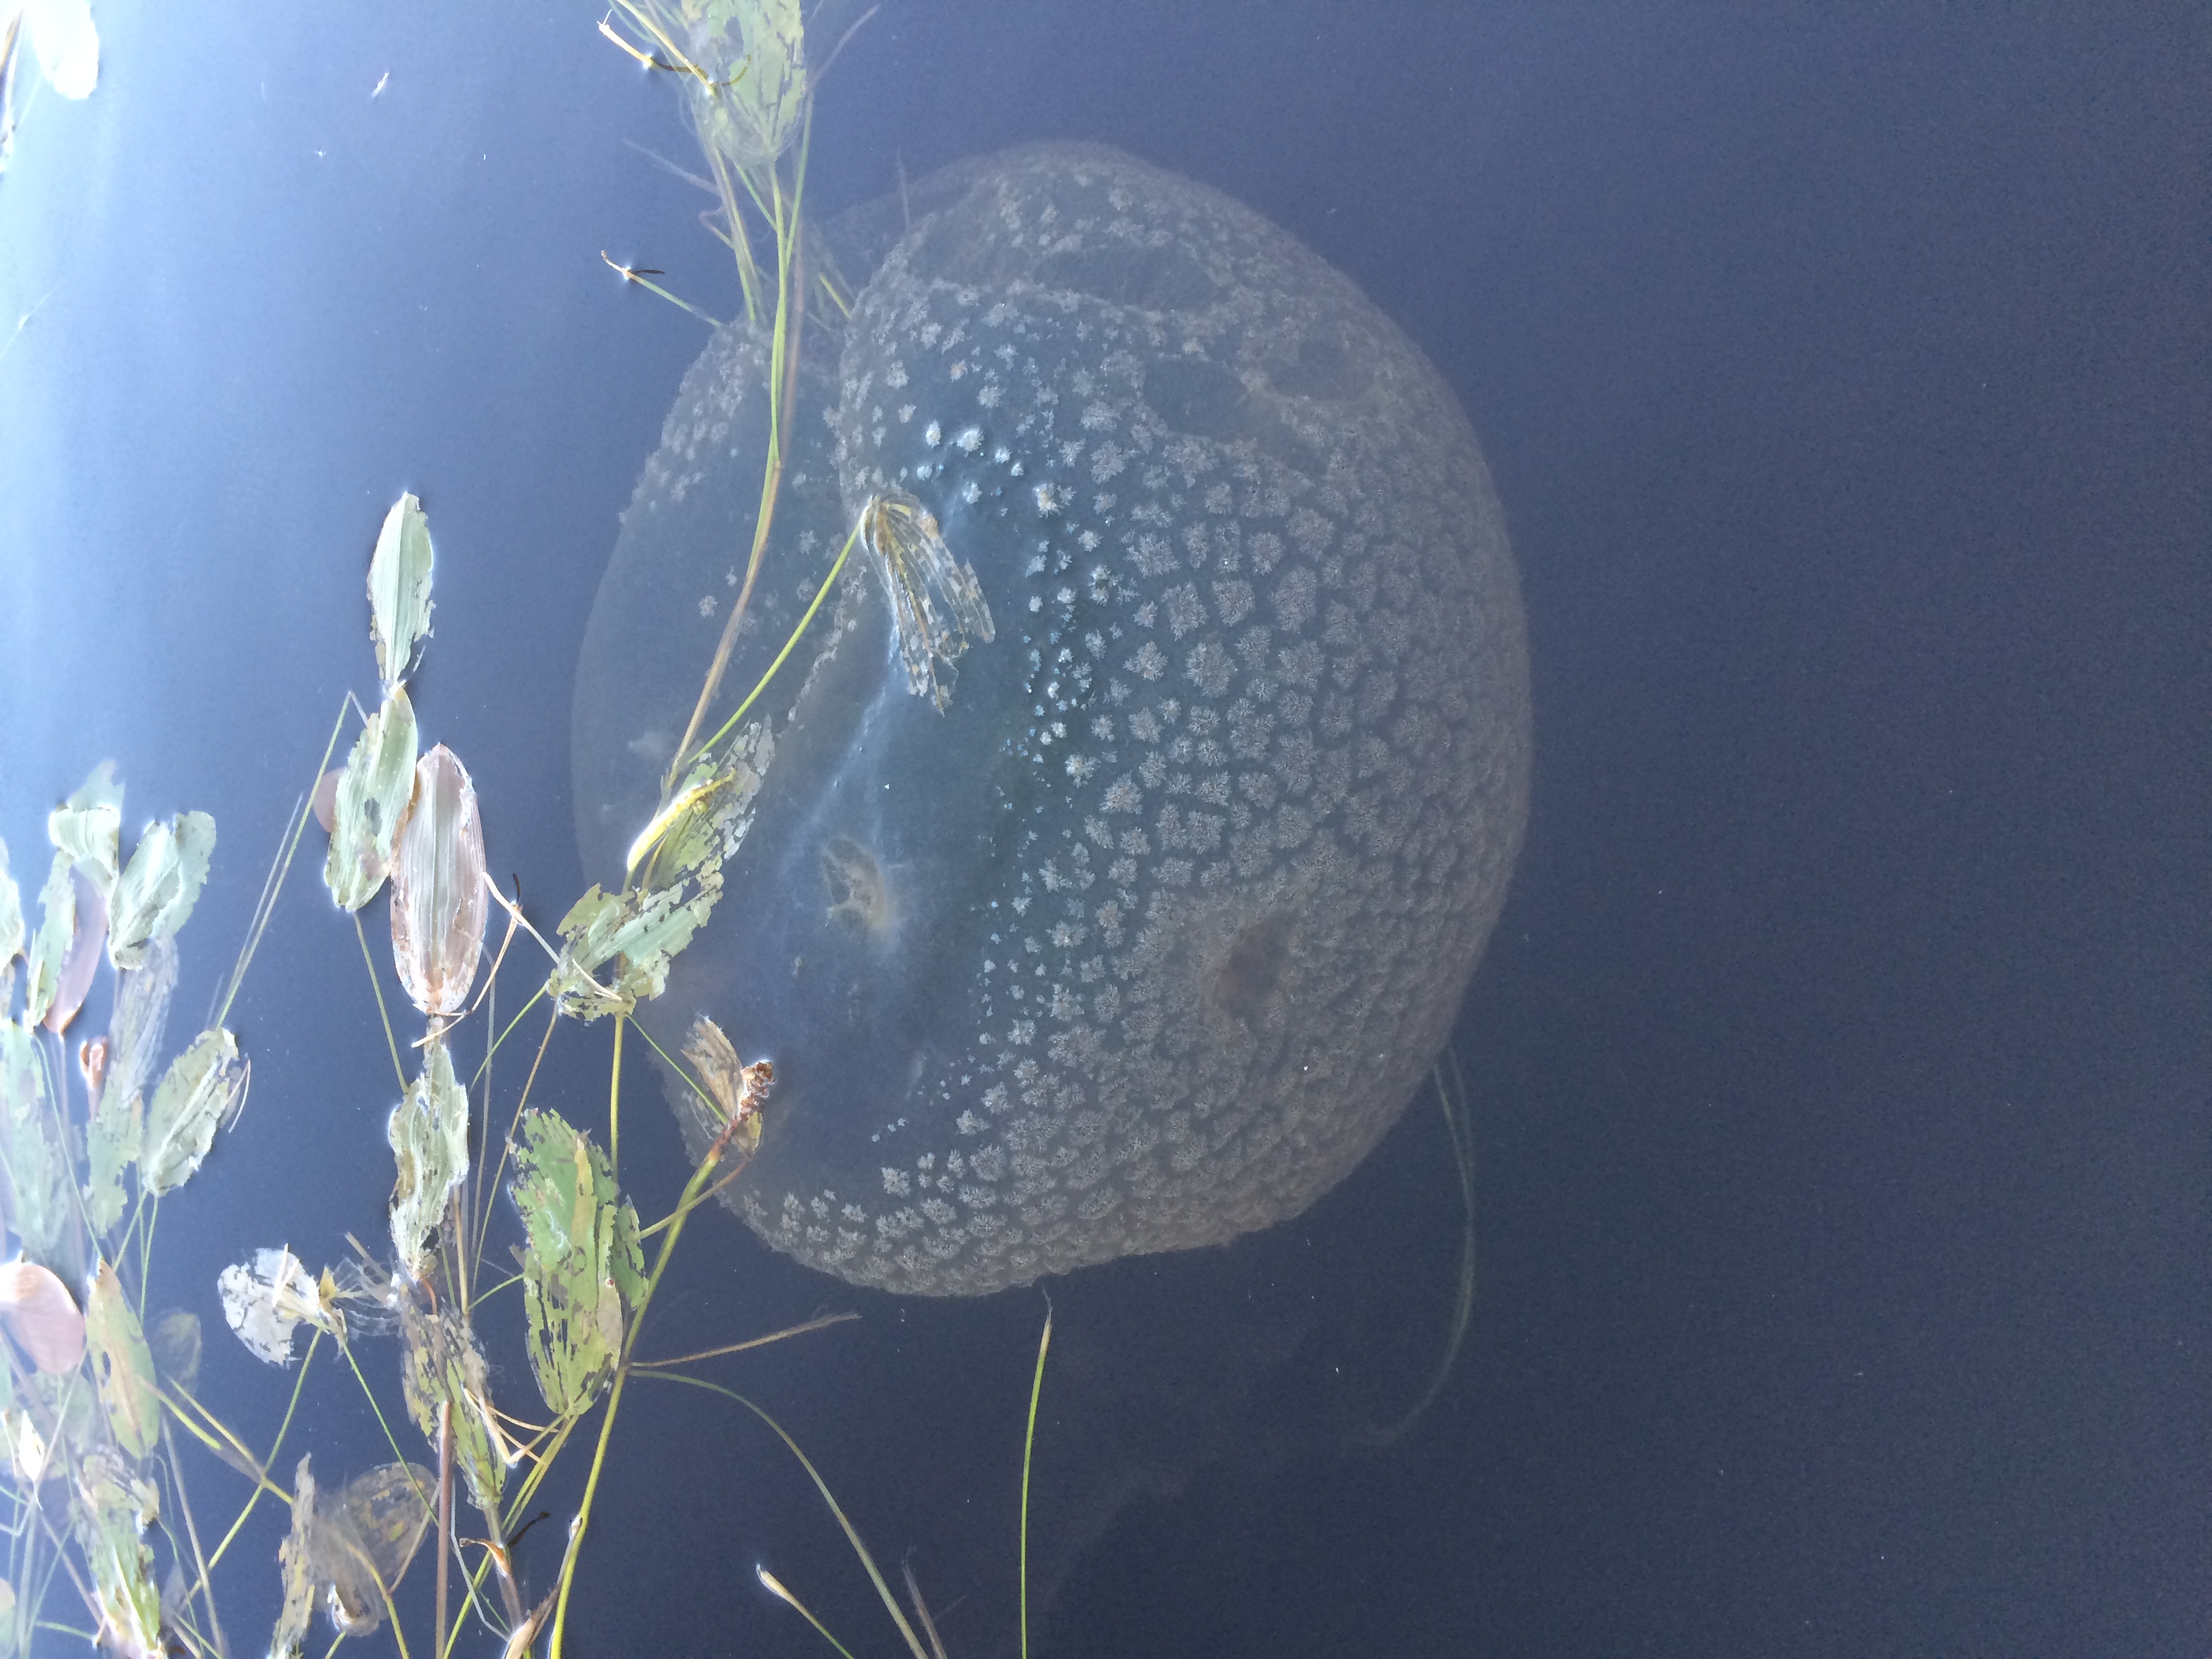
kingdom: Animalia
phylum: Bryozoa
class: Phylactolaemata
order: Plumatellida
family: Pectinatellidae
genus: Pectinatella
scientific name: Pectinatella magnifica
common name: Magnificent bryozoan
